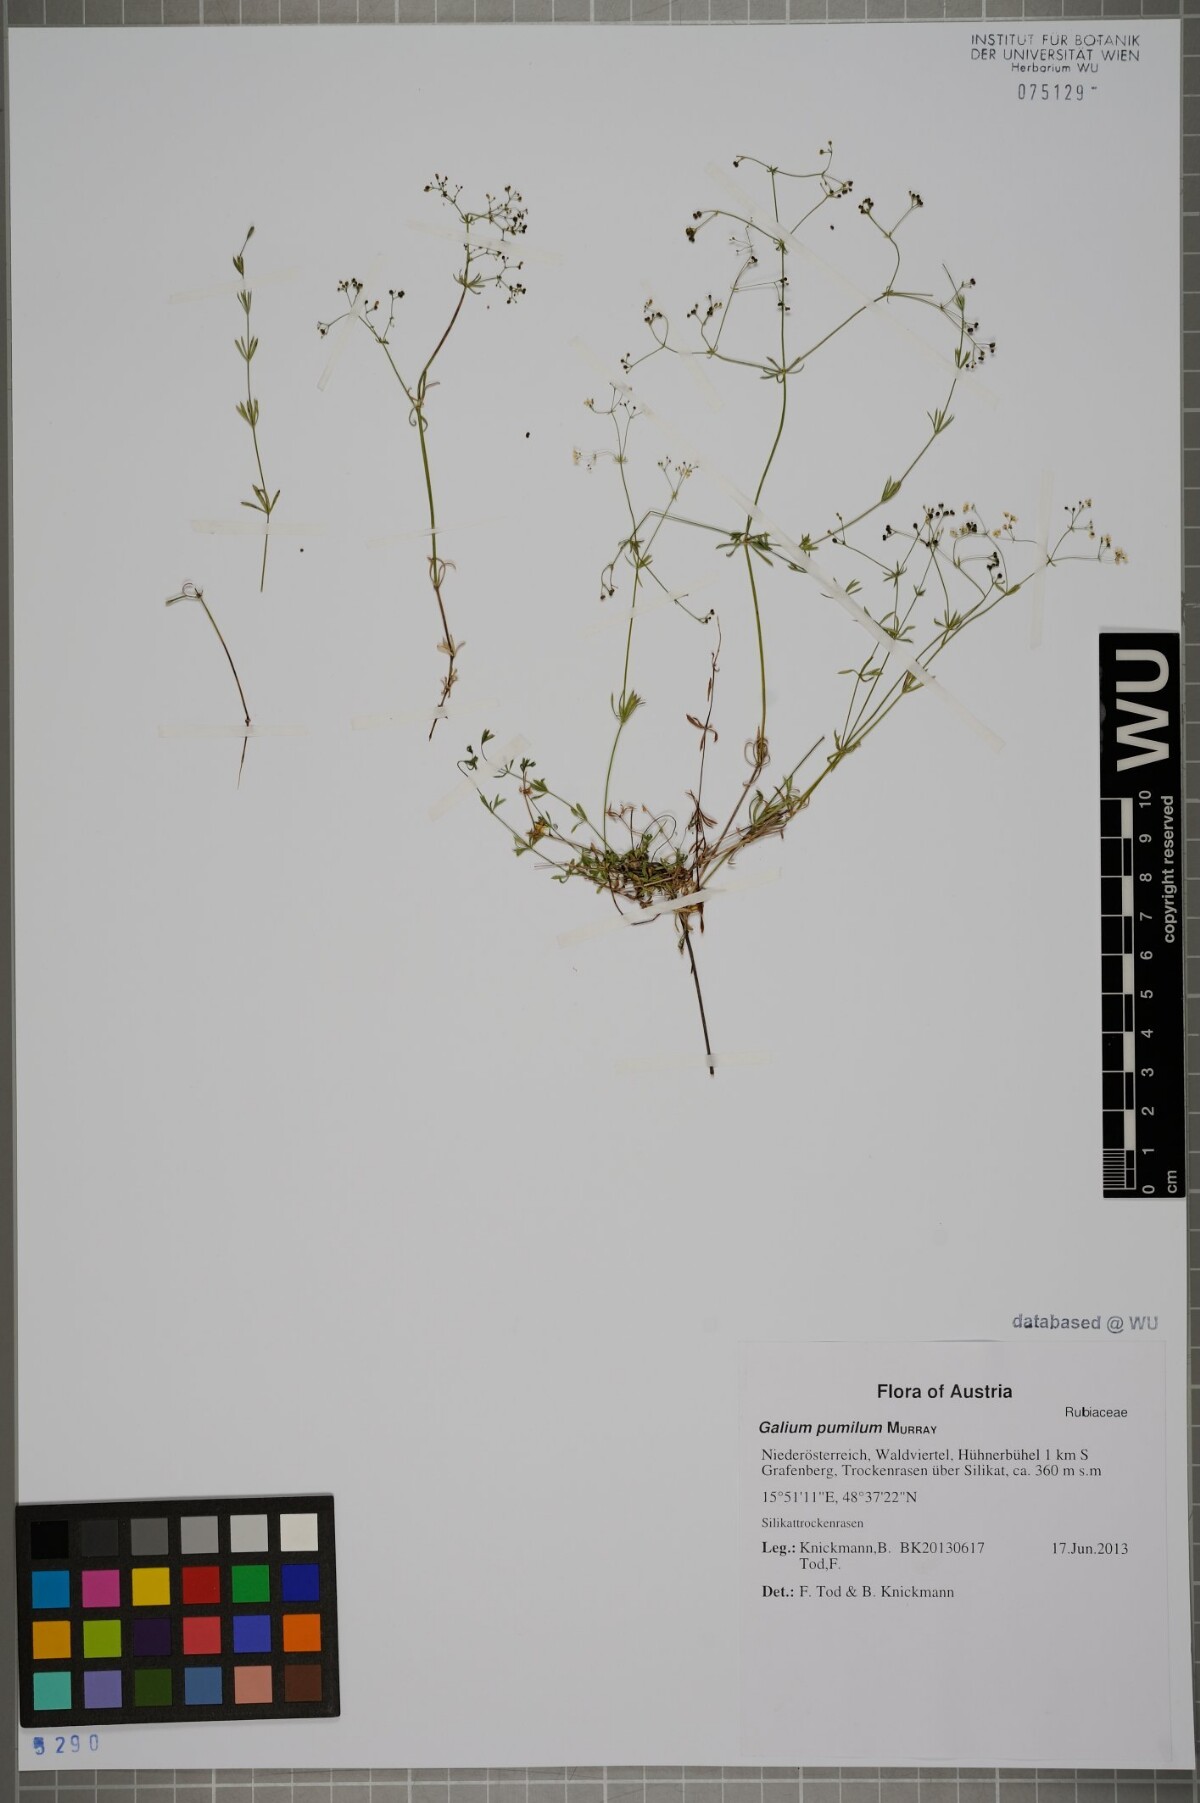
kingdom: Plantae
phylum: Tracheophyta
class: Magnoliopsida
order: Gentianales
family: Rubiaceae
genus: Galium
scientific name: Galium pumilum
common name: Slender bedstraw
